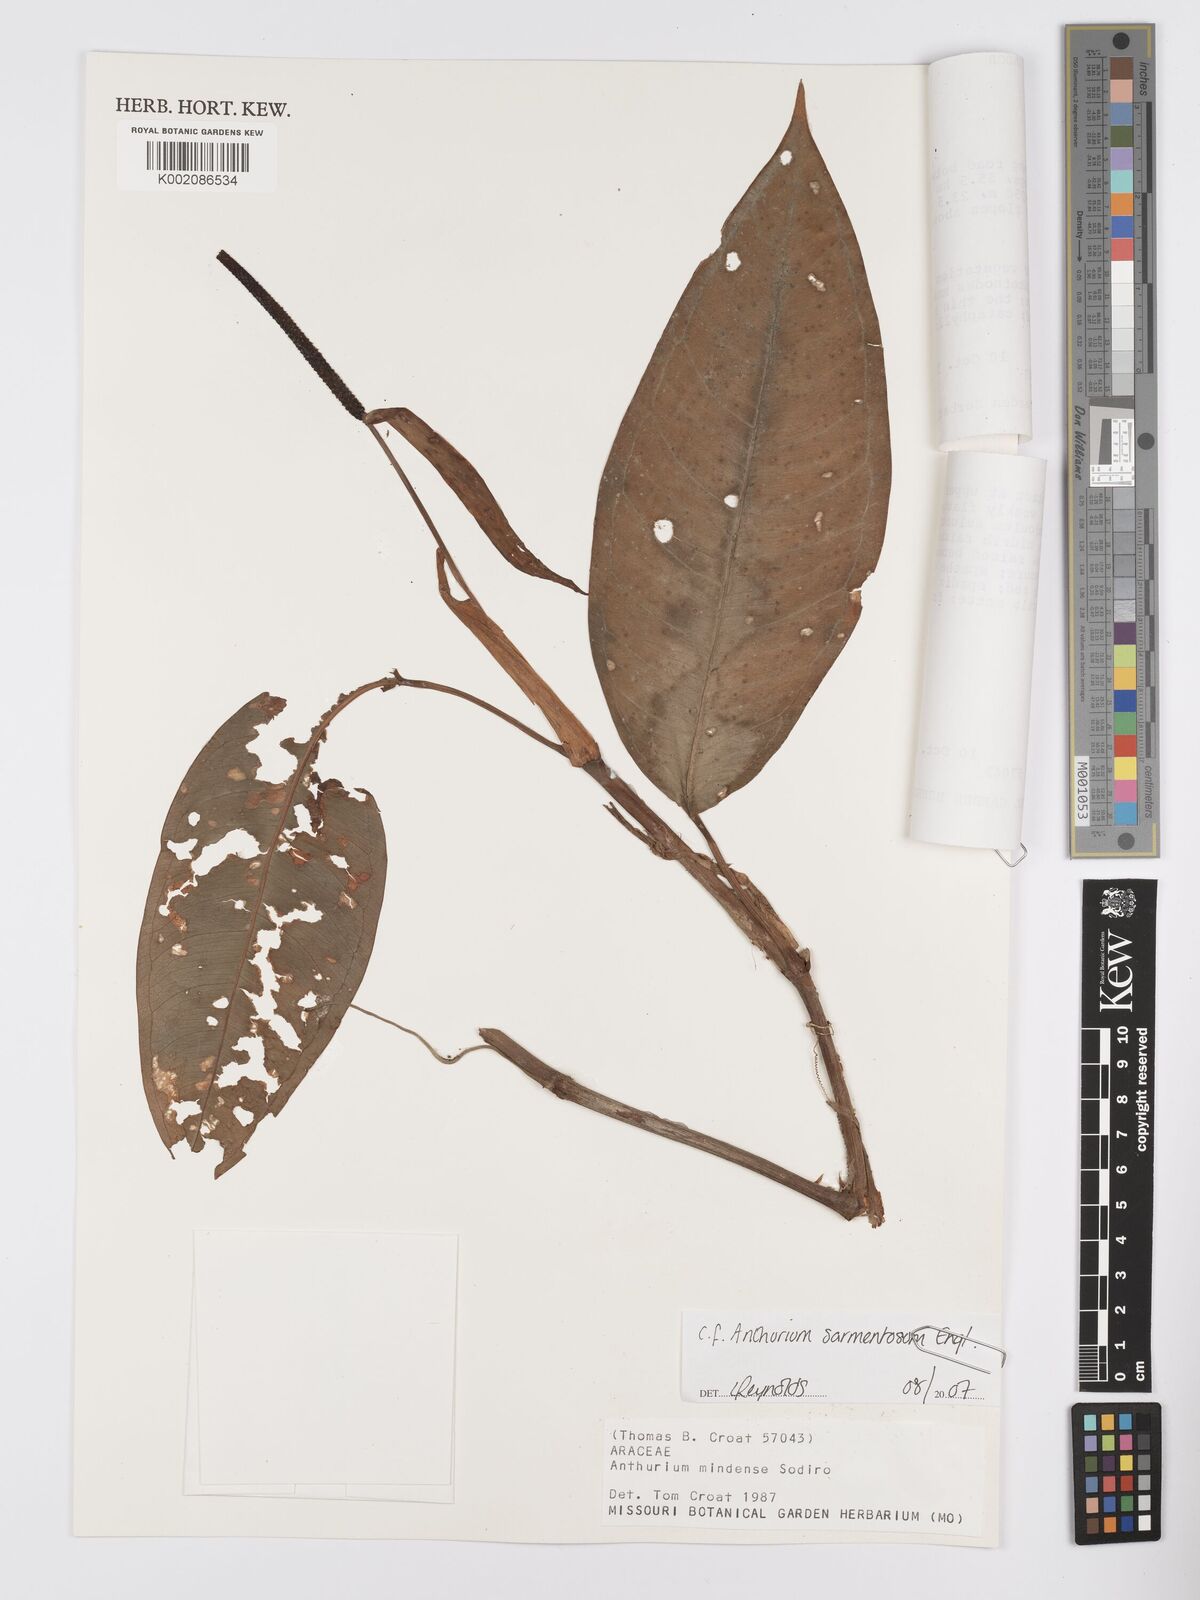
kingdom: Plantae
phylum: Tracheophyta
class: Liliopsida
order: Alismatales
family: Araceae
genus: Anthurium
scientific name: Anthurium mindense
